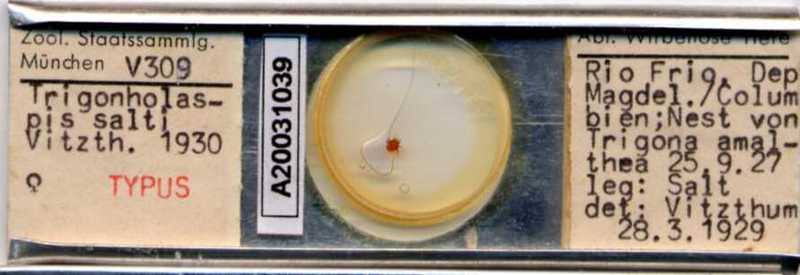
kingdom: Animalia
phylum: Arthropoda
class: Arachnida
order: Mesostigmata
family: Macrochelidae
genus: Trigonholaspis
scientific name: Trigonholaspis
